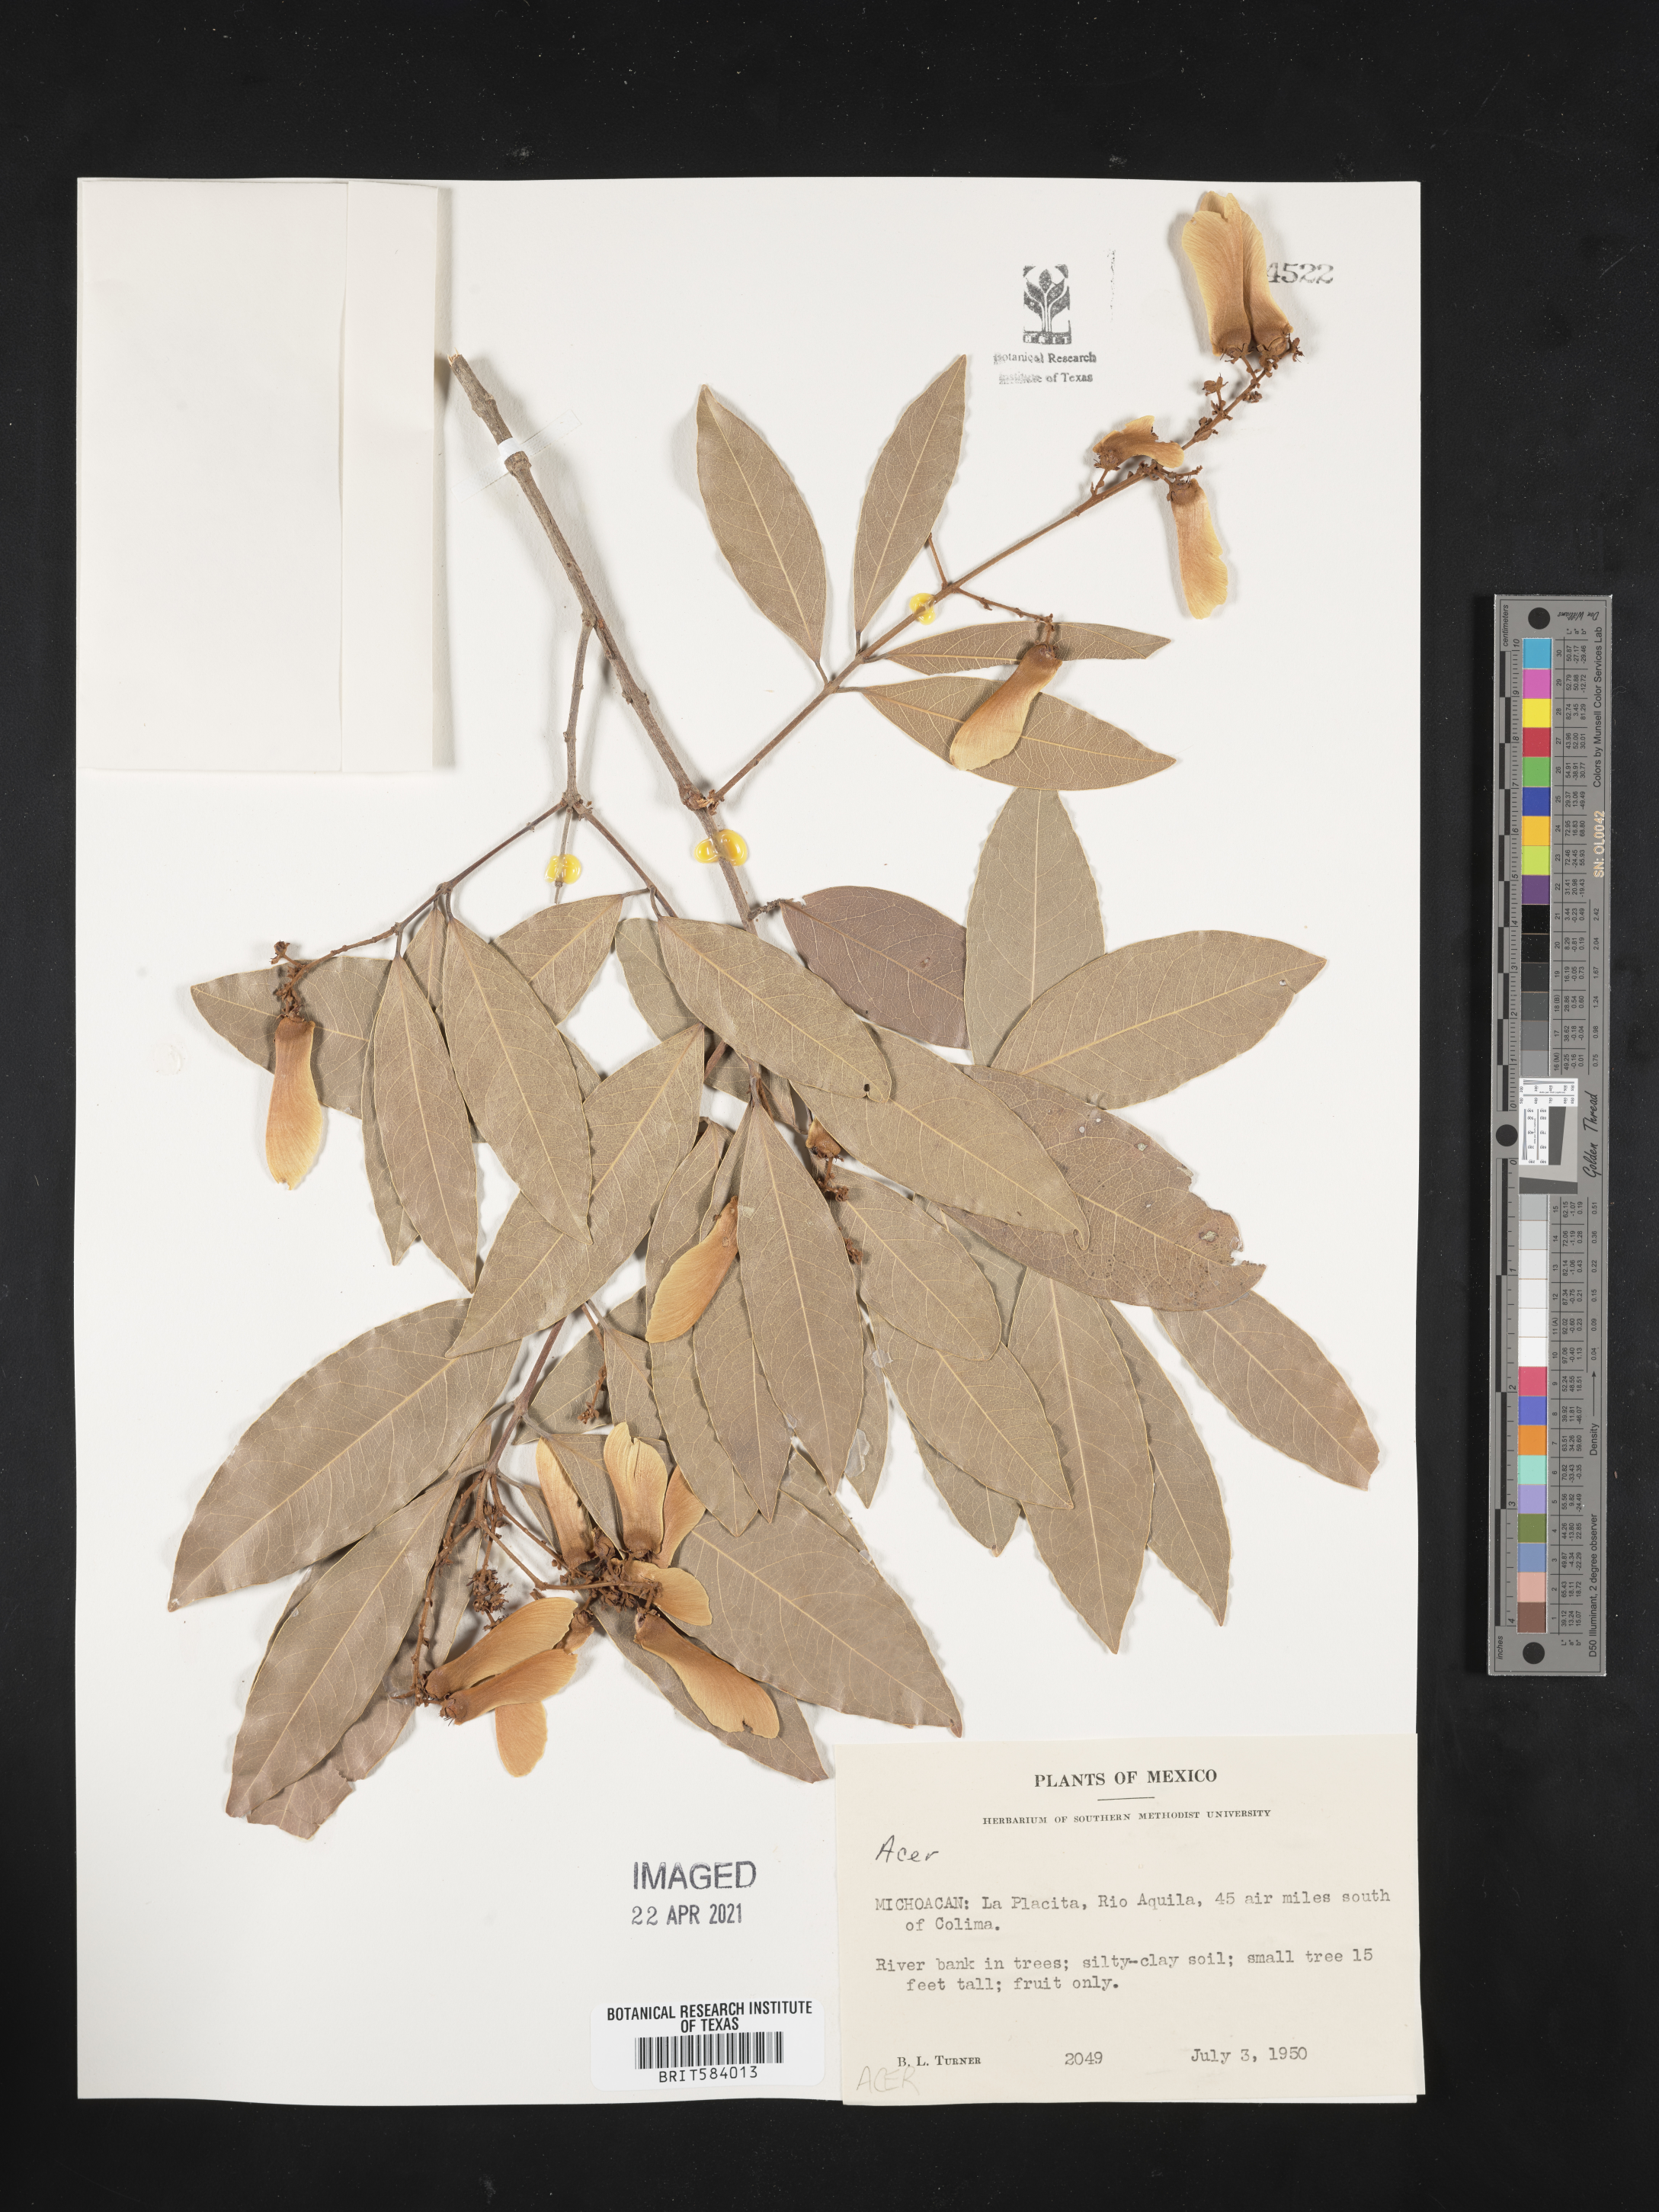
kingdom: Plantae
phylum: Tracheophyta
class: Magnoliopsida
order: Sapindales
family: Sapindaceae
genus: Acer
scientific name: Acer
